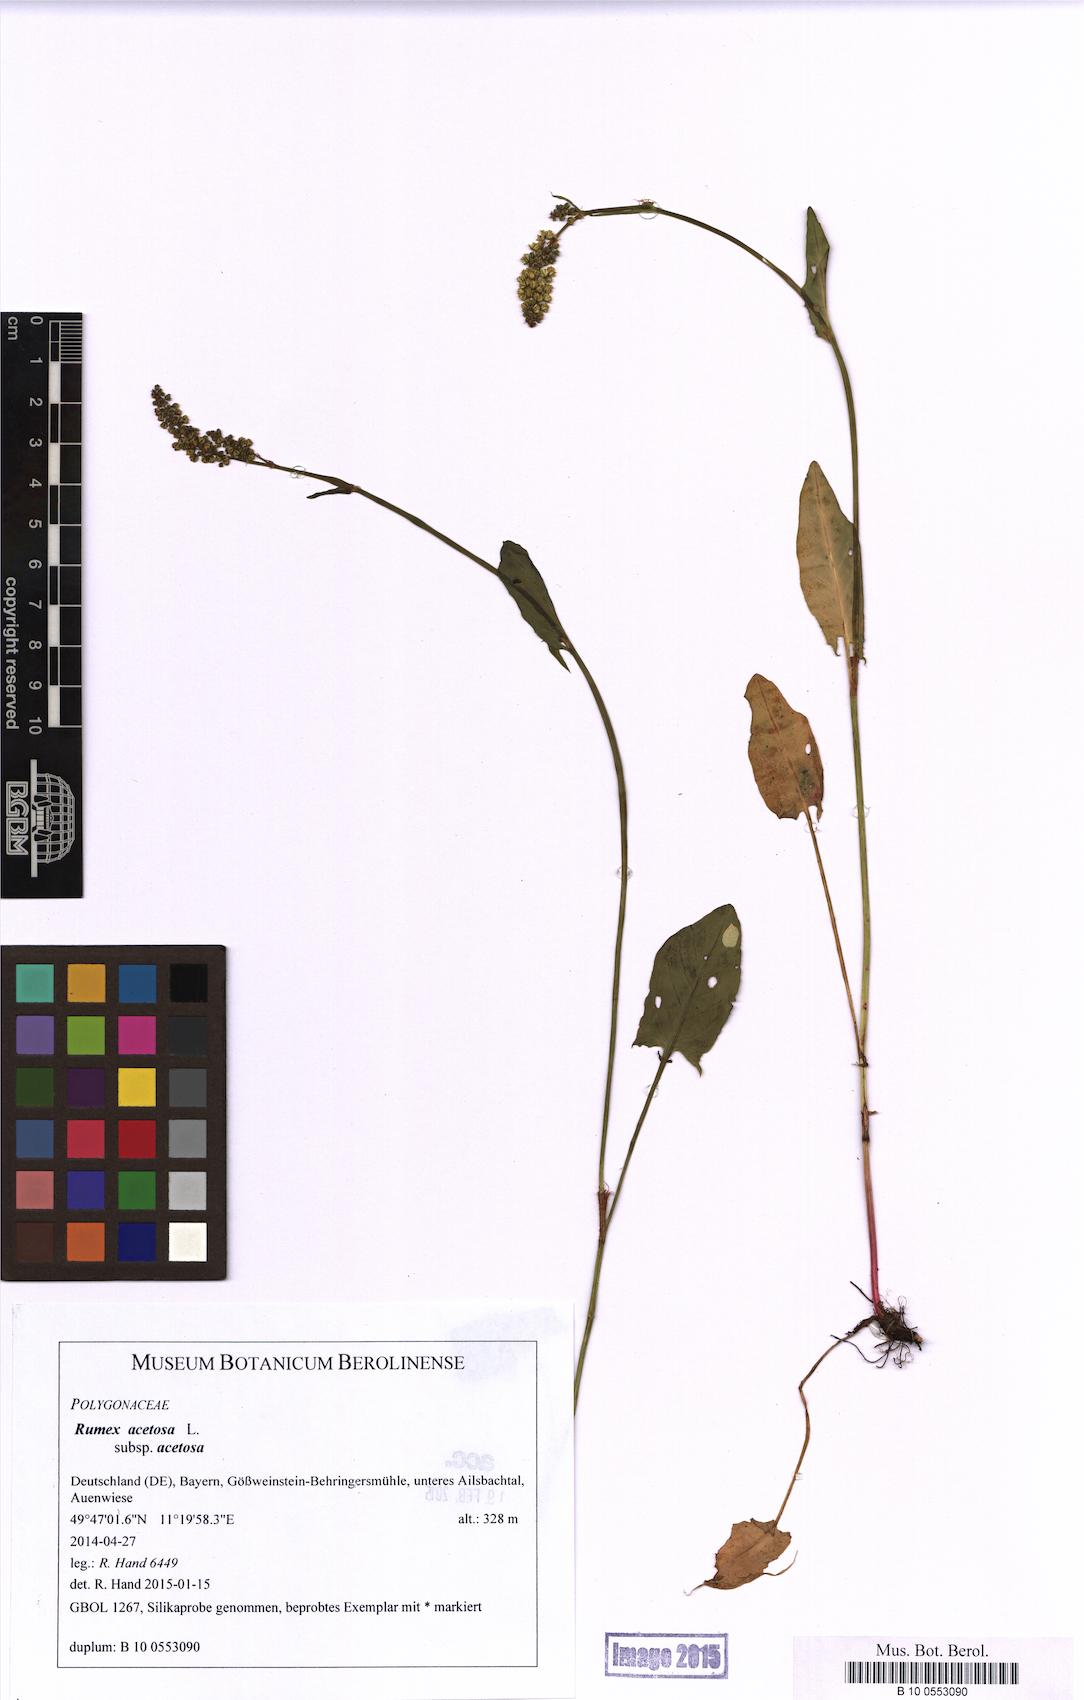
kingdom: Plantae
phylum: Tracheophyta
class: Magnoliopsida
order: Caryophyllales
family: Polygonaceae
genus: Rumex
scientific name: Rumex acetosa
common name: Garden sorrel
